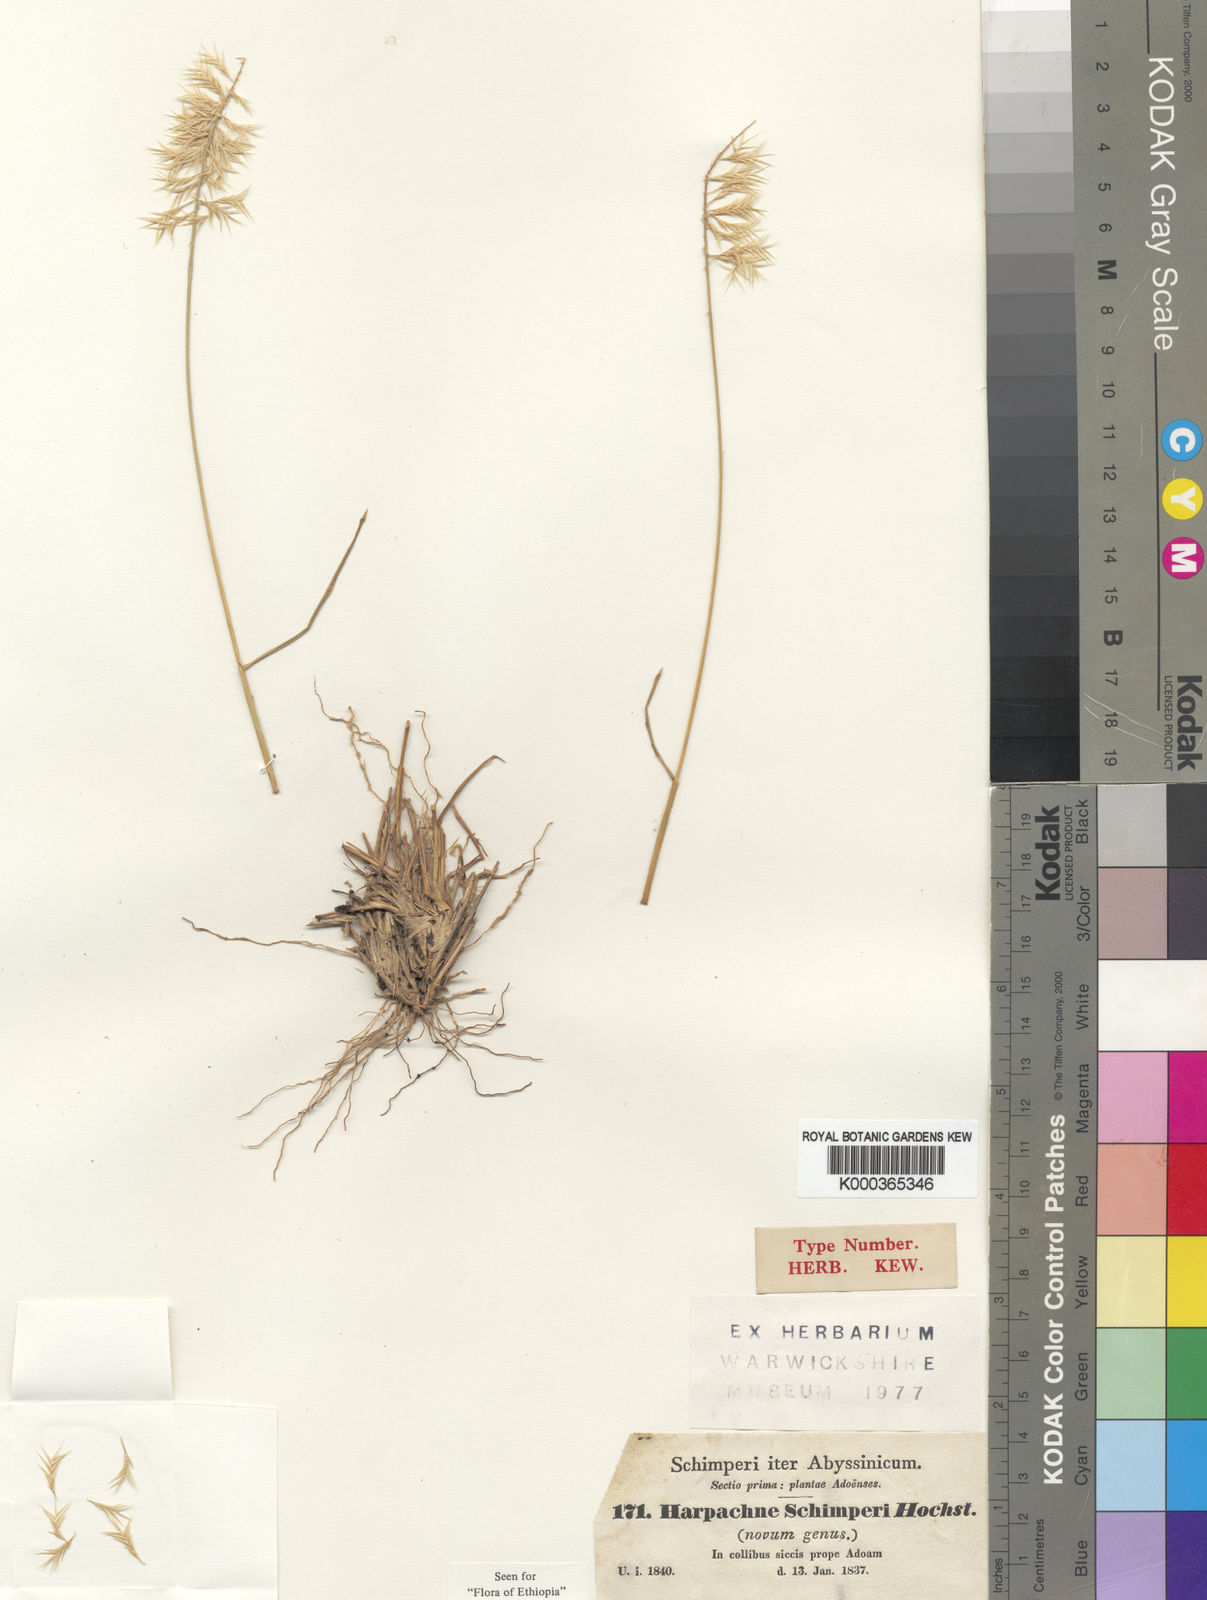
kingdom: Plantae
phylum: Tracheophyta
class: Liliopsida
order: Poales
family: Poaceae
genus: Harpachne
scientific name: Harpachne schimperi
